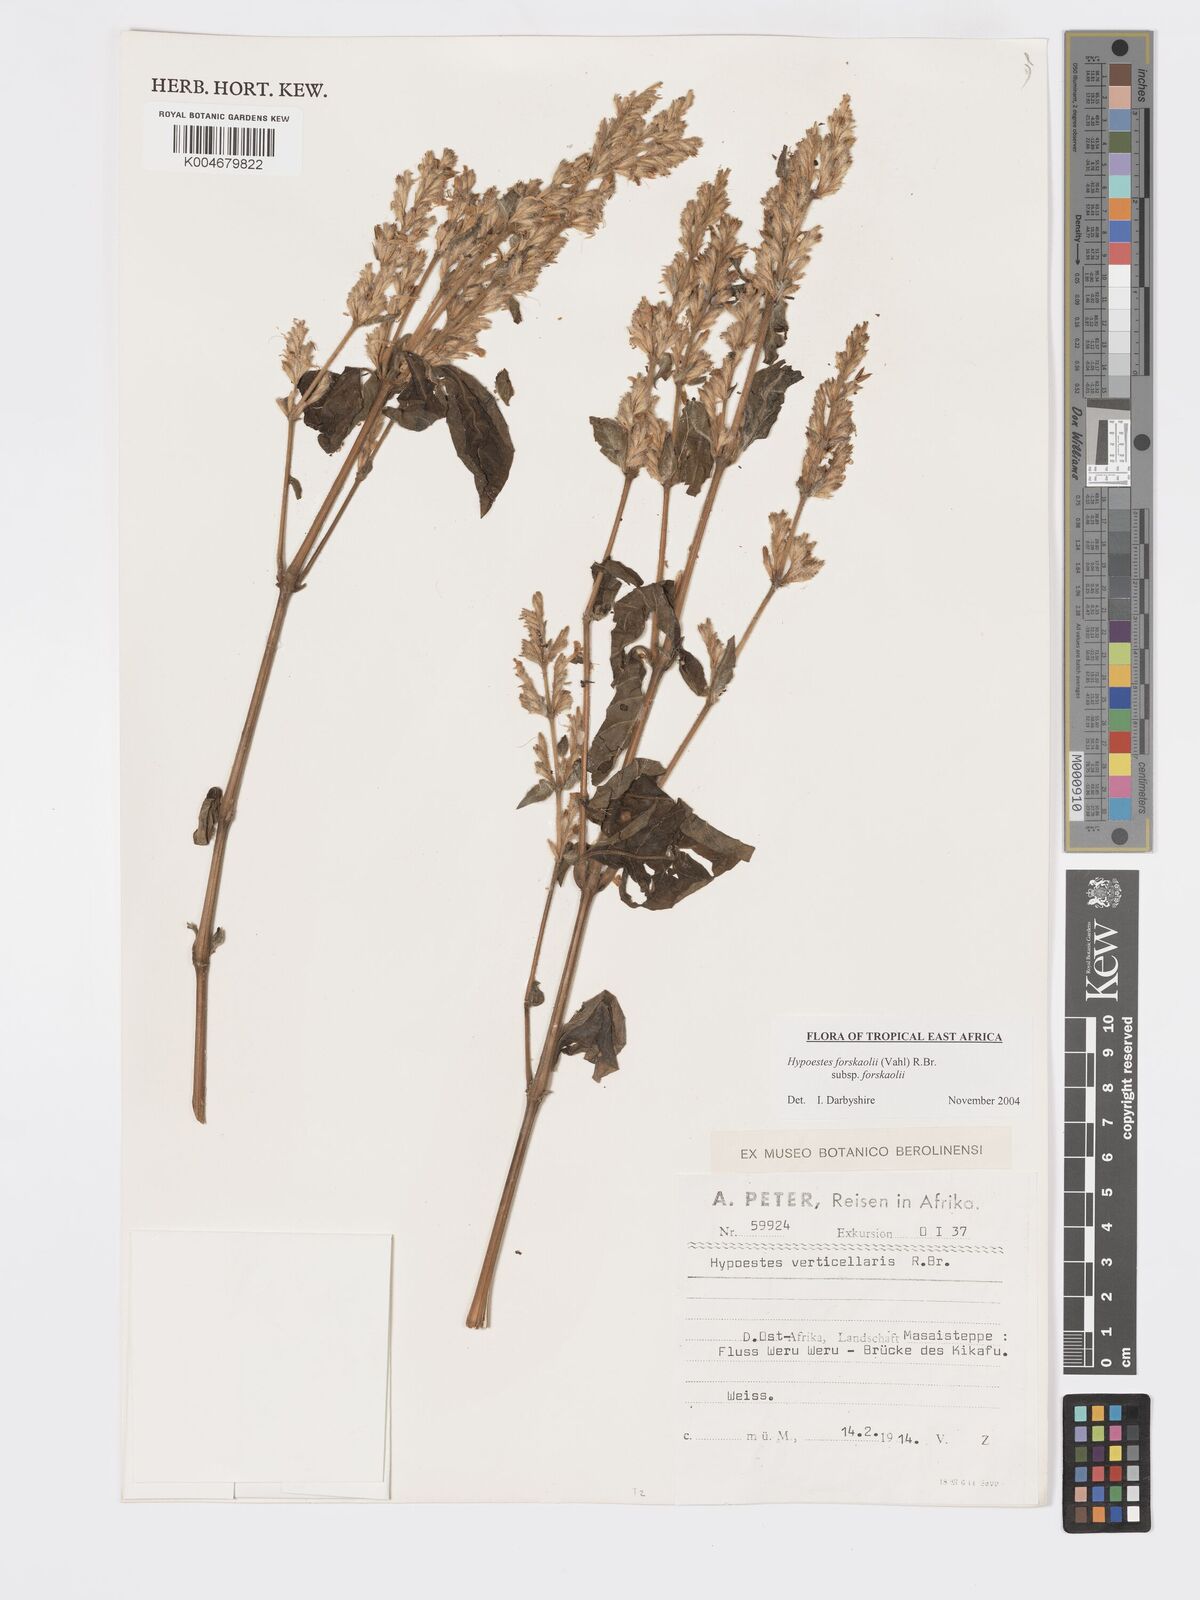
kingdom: Plantae
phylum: Tracheophyta
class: Magnoliopsida
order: Lamiales
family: Acanthaceae
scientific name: Acanthaceae
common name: Acanthaceae
